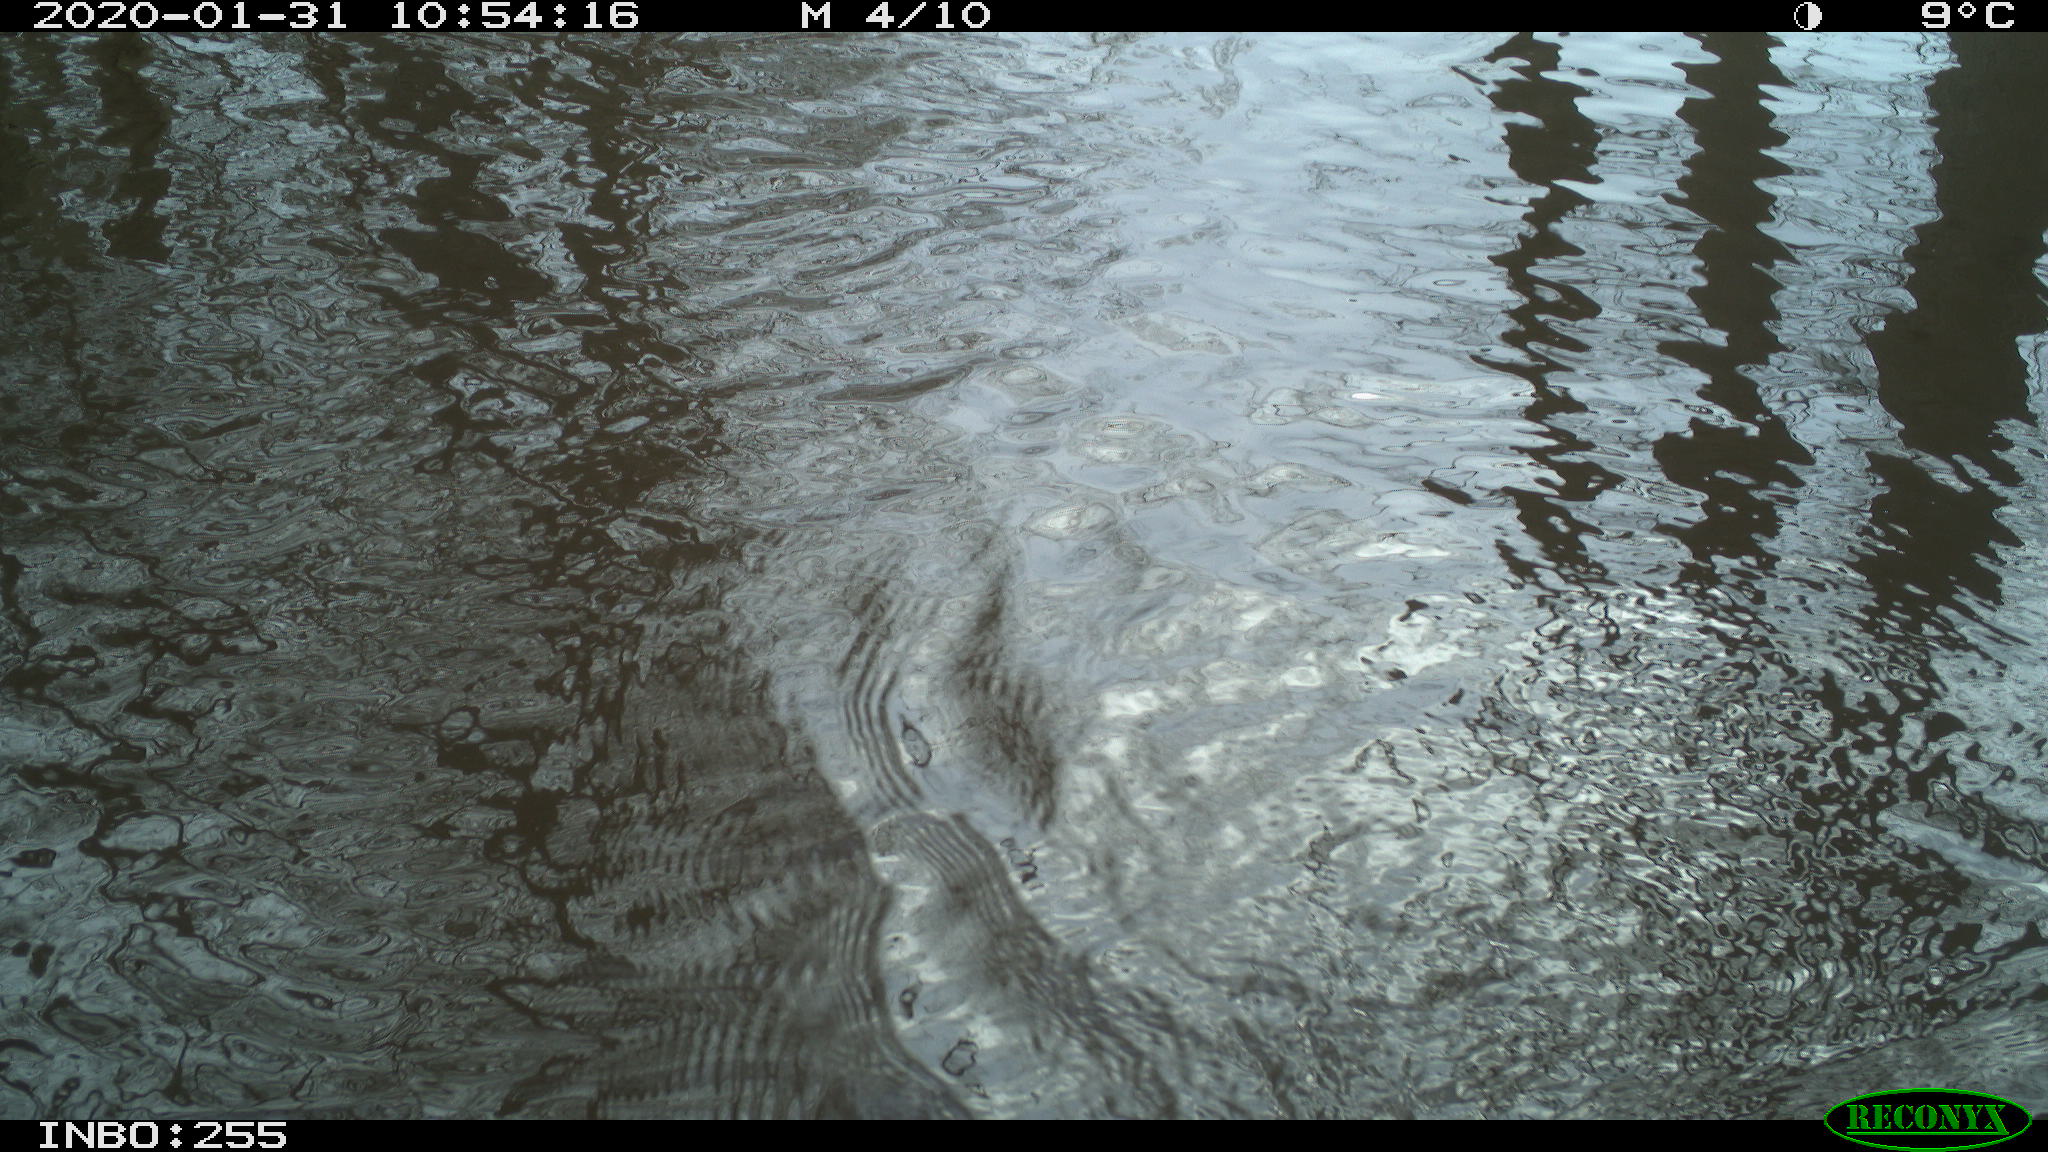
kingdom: Animalia
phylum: Chordata
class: Aves
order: Gruiformes
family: Rallidae
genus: Fulica
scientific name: Fulica atra
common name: Eurasian coot
